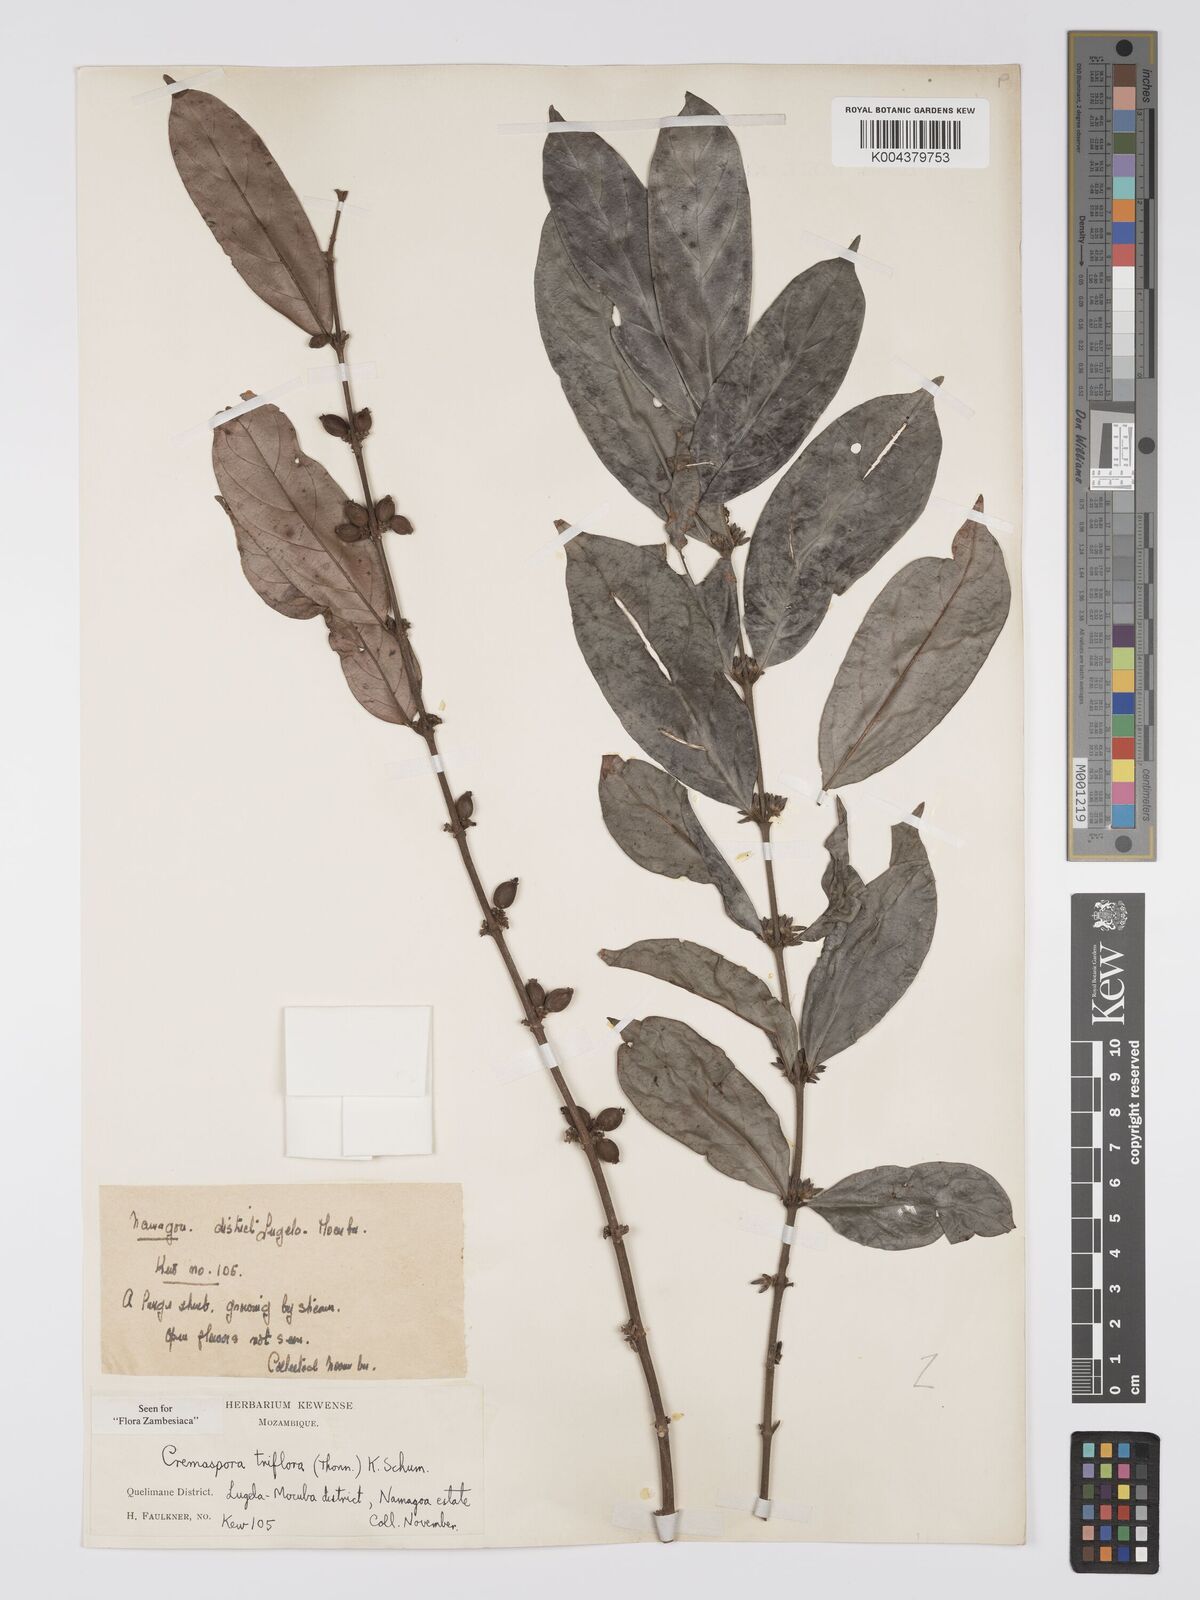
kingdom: Plantae
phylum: Tracheophyta
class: Magnoliopsida
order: Gentianales
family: Rubiaceae
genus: Cremaspora
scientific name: Cremaspora triflora
